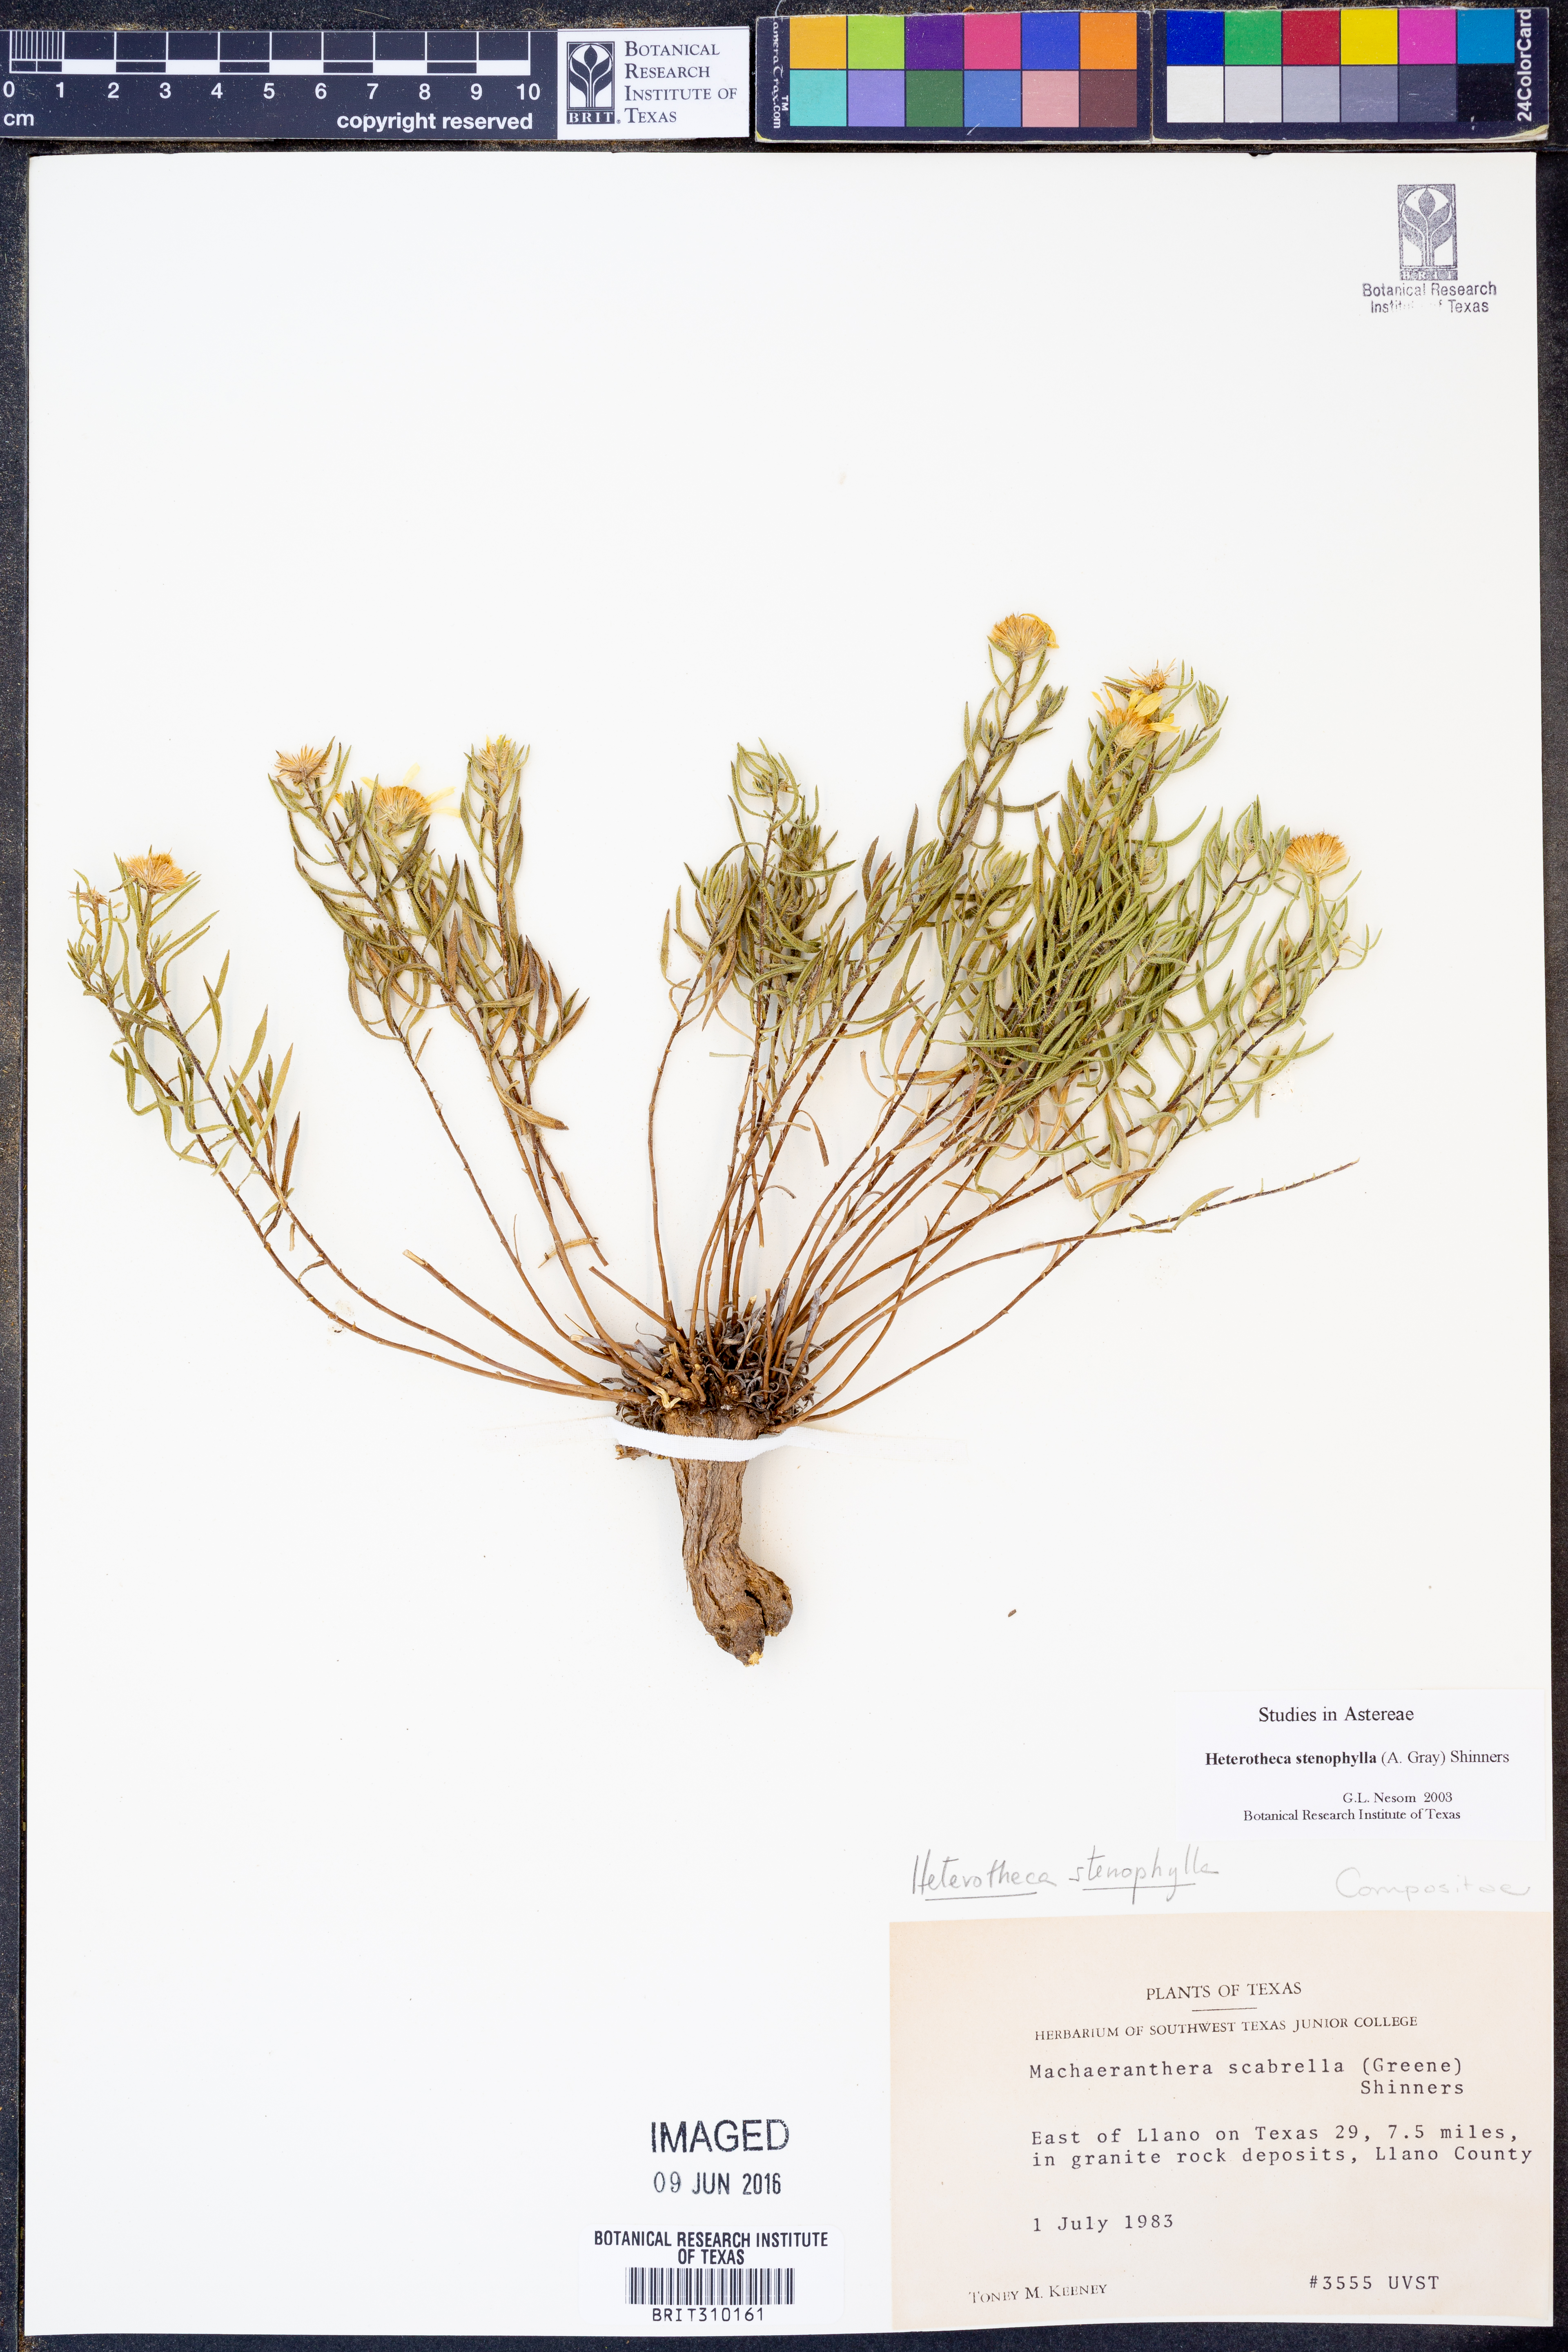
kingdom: Plantae
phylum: Tracheophyta
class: Magnoliopsida
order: Asterales
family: Asteraceae
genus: Heterotheca
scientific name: Heterotheca stenophylla
